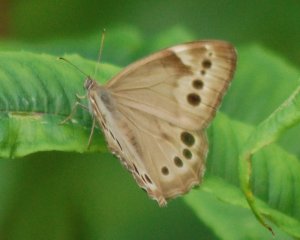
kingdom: Animalia
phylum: Arthropoda
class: Insecta
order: Lepidoptera
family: Nymphalidae
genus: Lethe
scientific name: Lethe anthedon
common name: Northern Pearly-Eye
